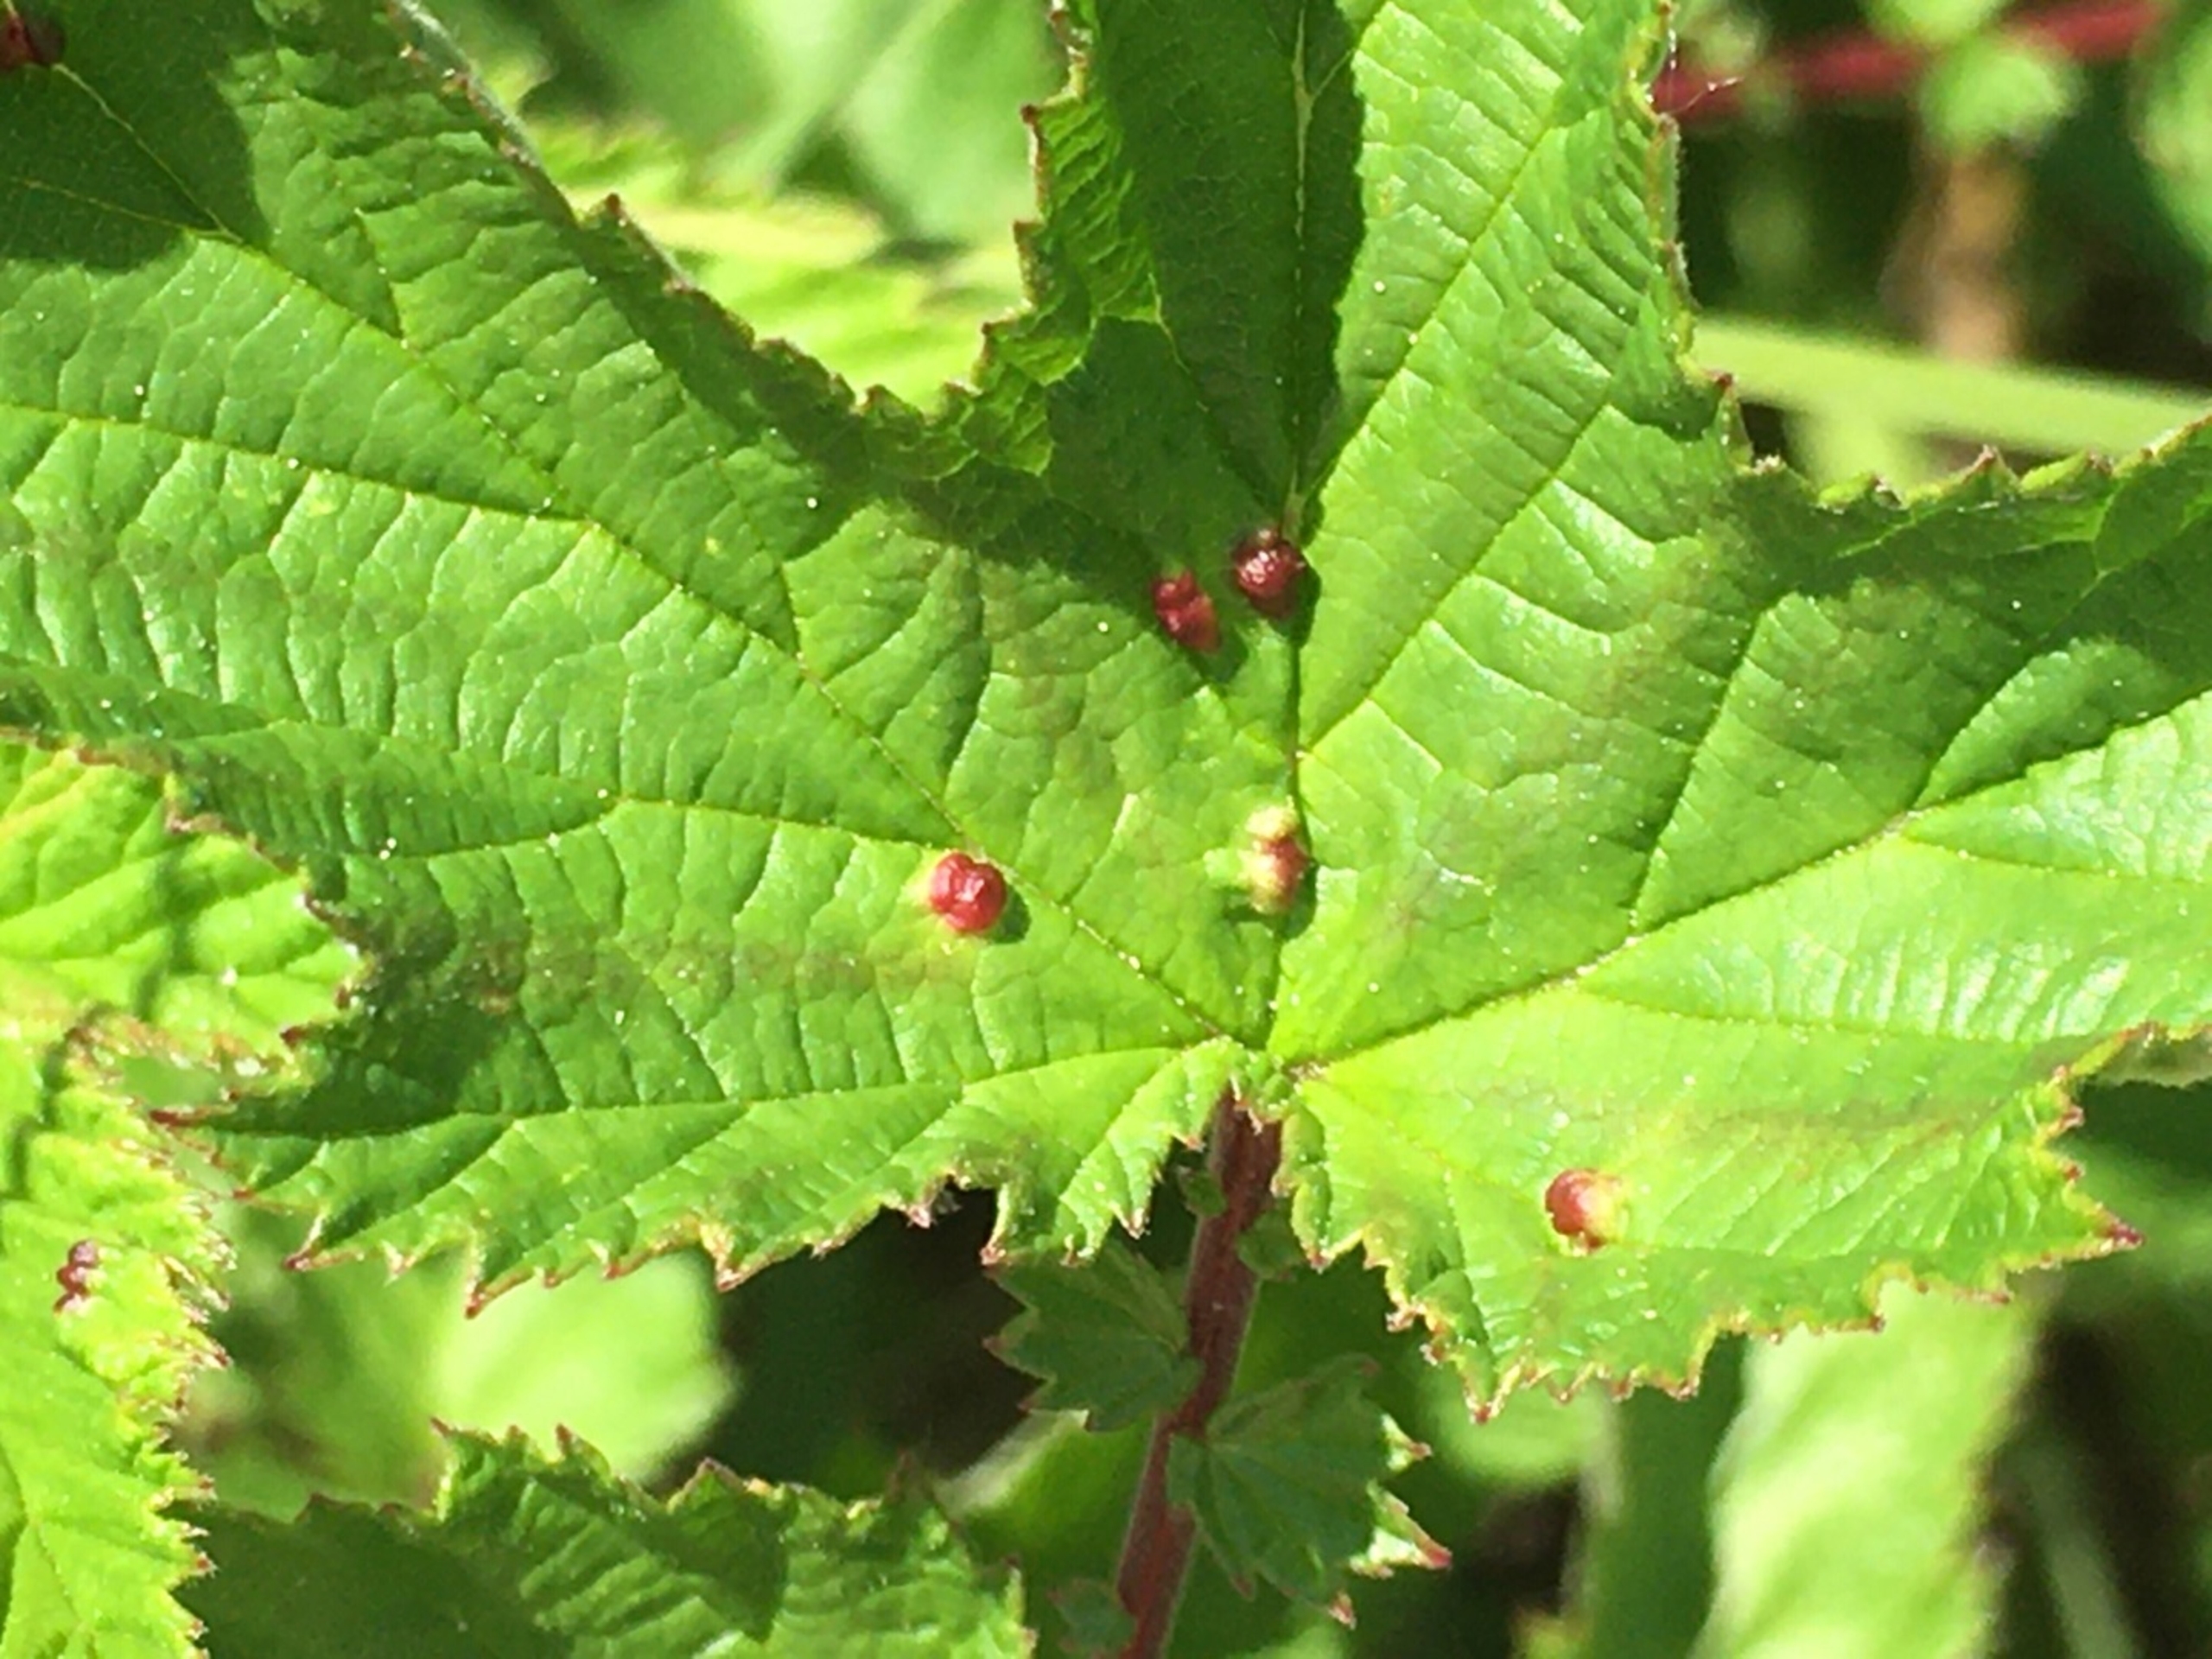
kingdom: Animalia
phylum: Arthropoda
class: Insecta
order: Diptera
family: Cecidomyiidae
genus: Dasineura
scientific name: Dasineura ulmaria
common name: Mjødurtgalmyg
